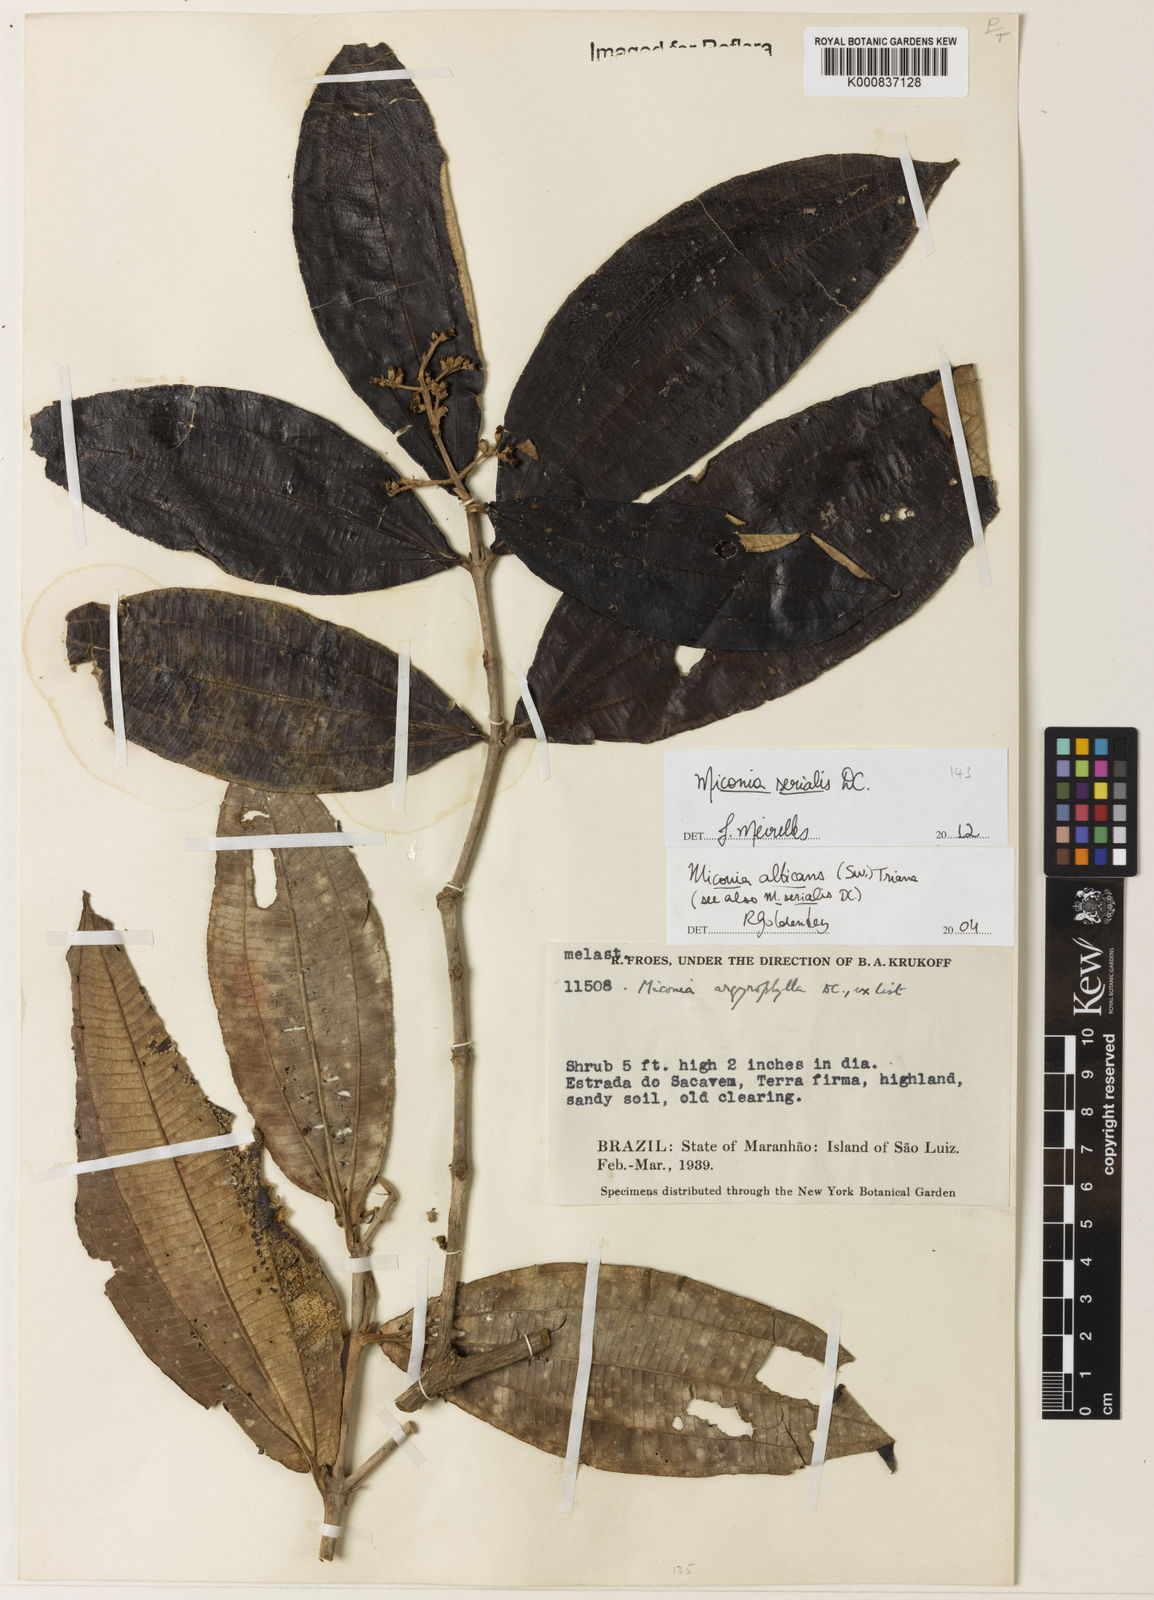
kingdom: Plantae
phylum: Tracheophyta
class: Magnoliopsida
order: Myrtales
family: Melastomataceae
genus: Miconia
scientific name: Miconia serialis
